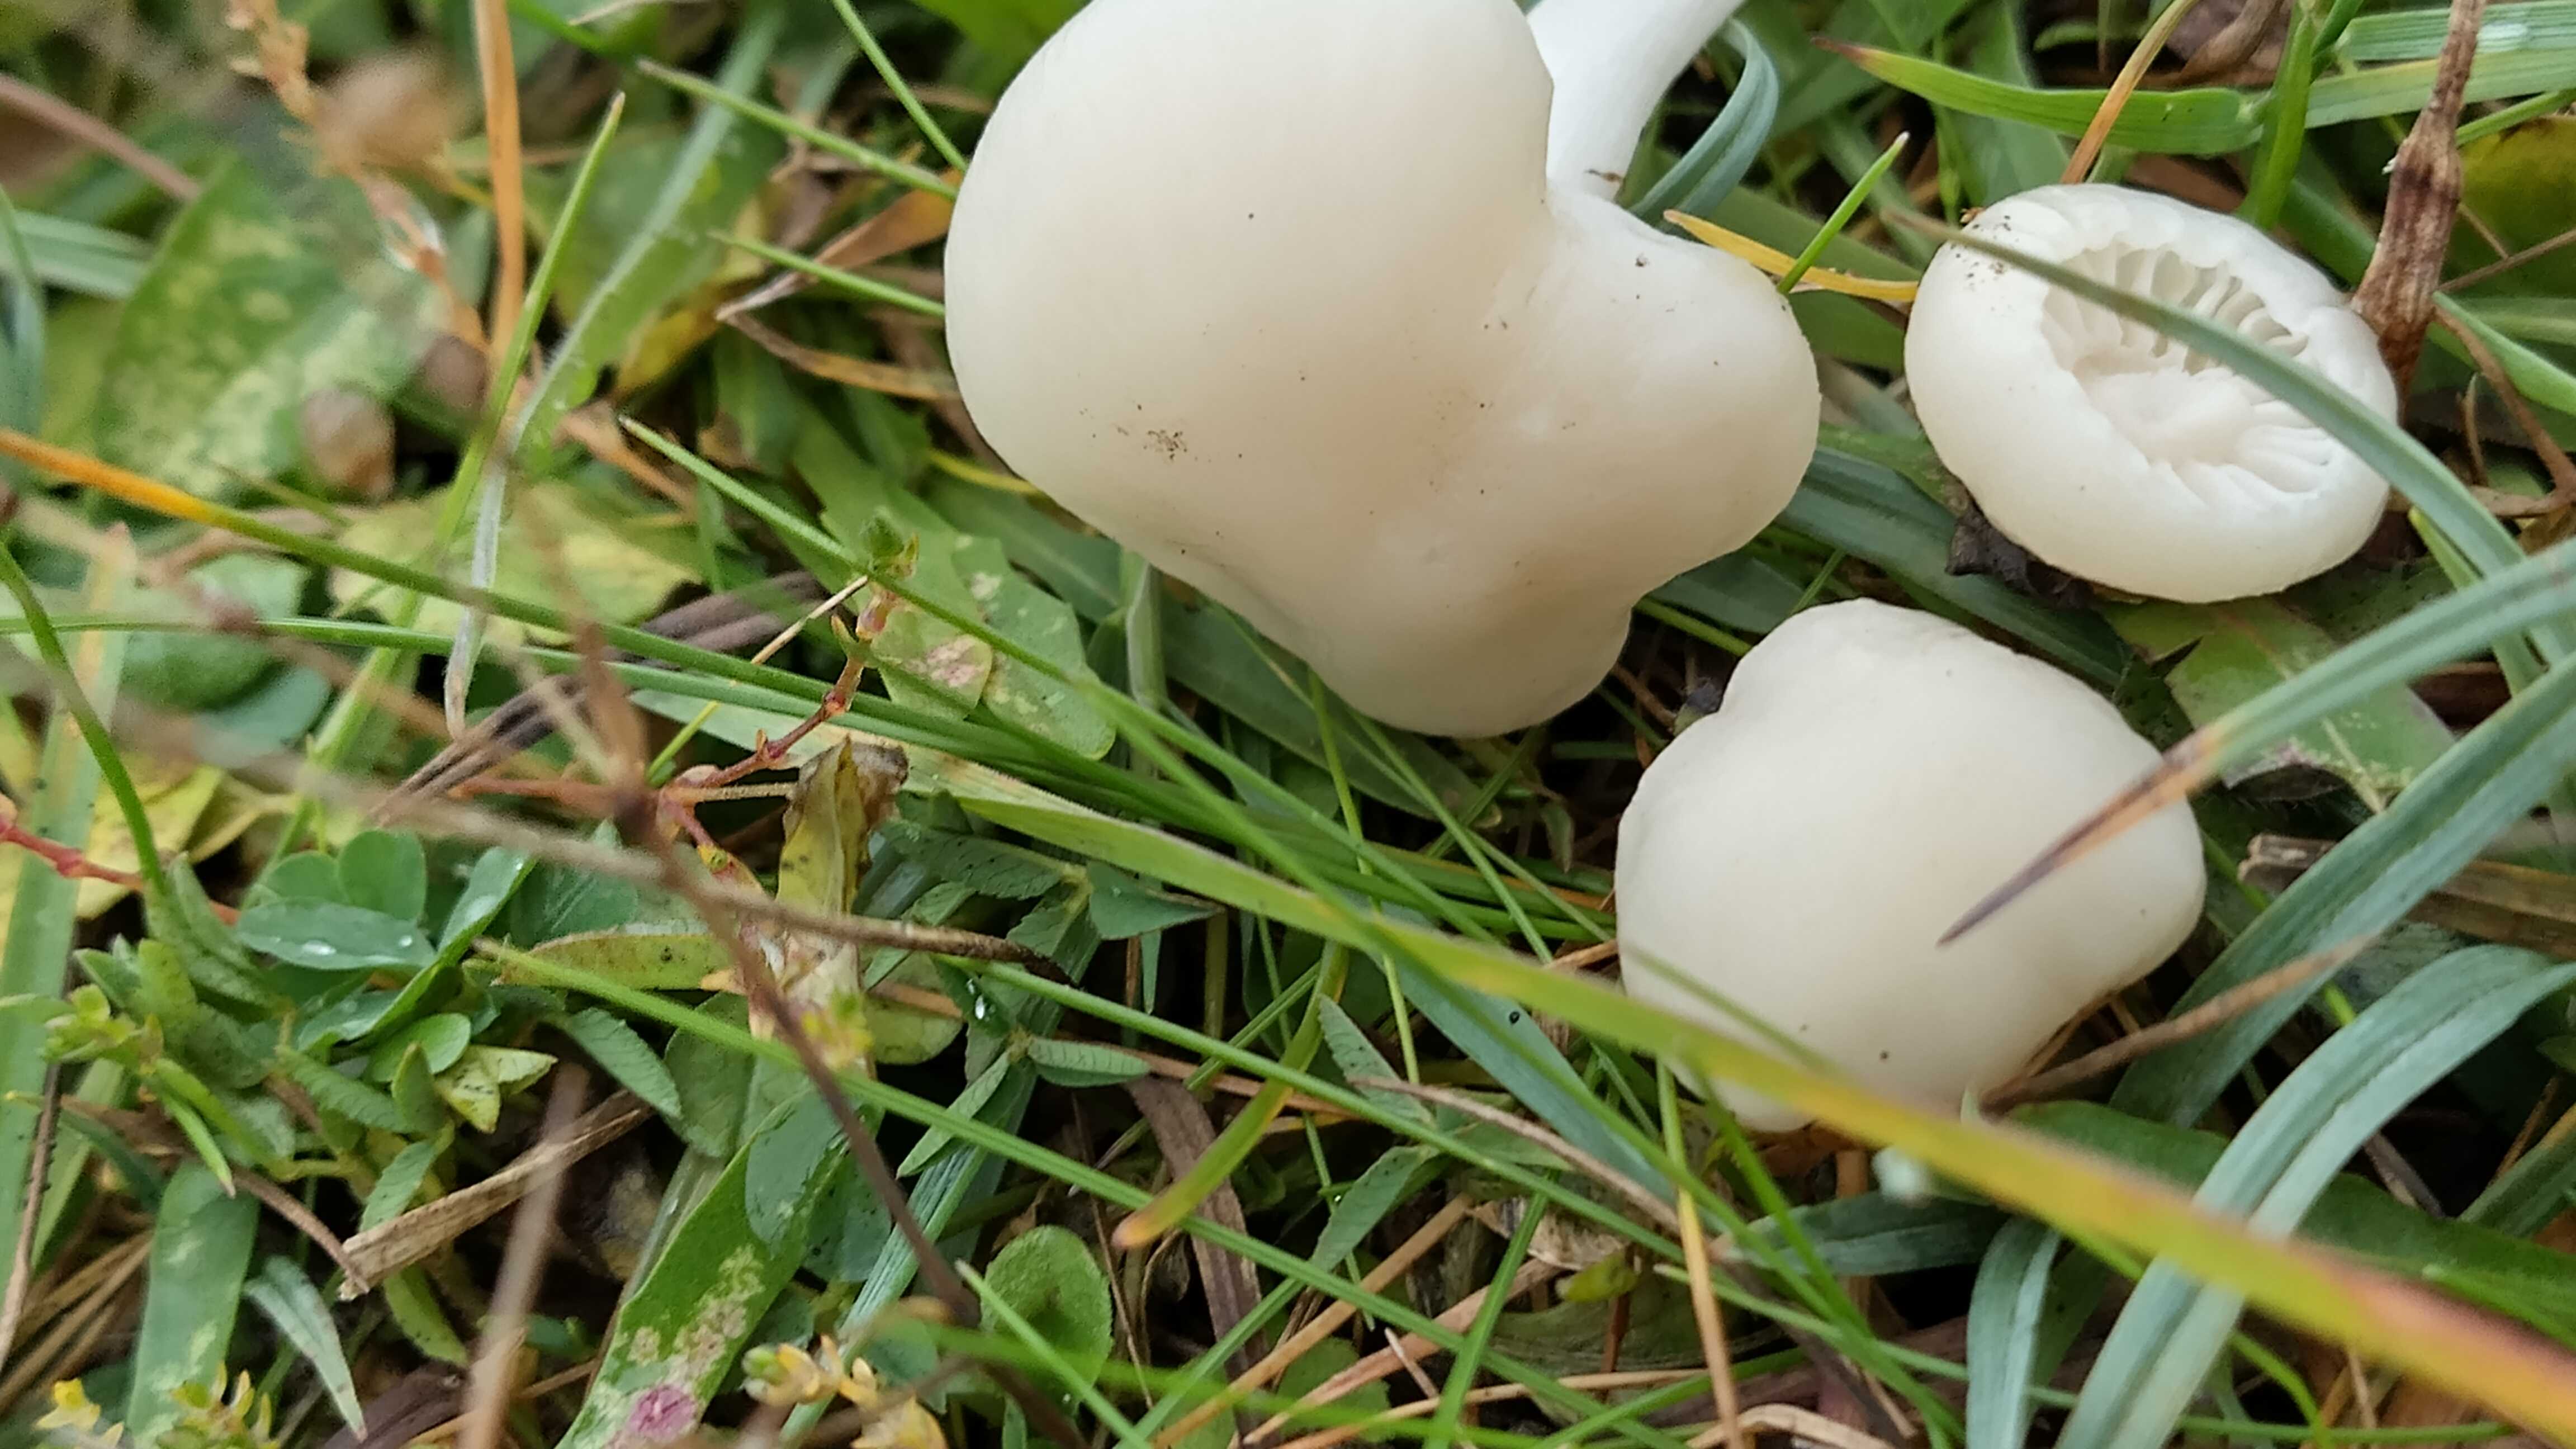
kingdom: Fungi
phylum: Basidiomycota
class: Agaricomycetes
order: Agaricales
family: Hygrophoraceae
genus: Cuphophyllus
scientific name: Cuphophyllus virgineus
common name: snehvid vokshat
